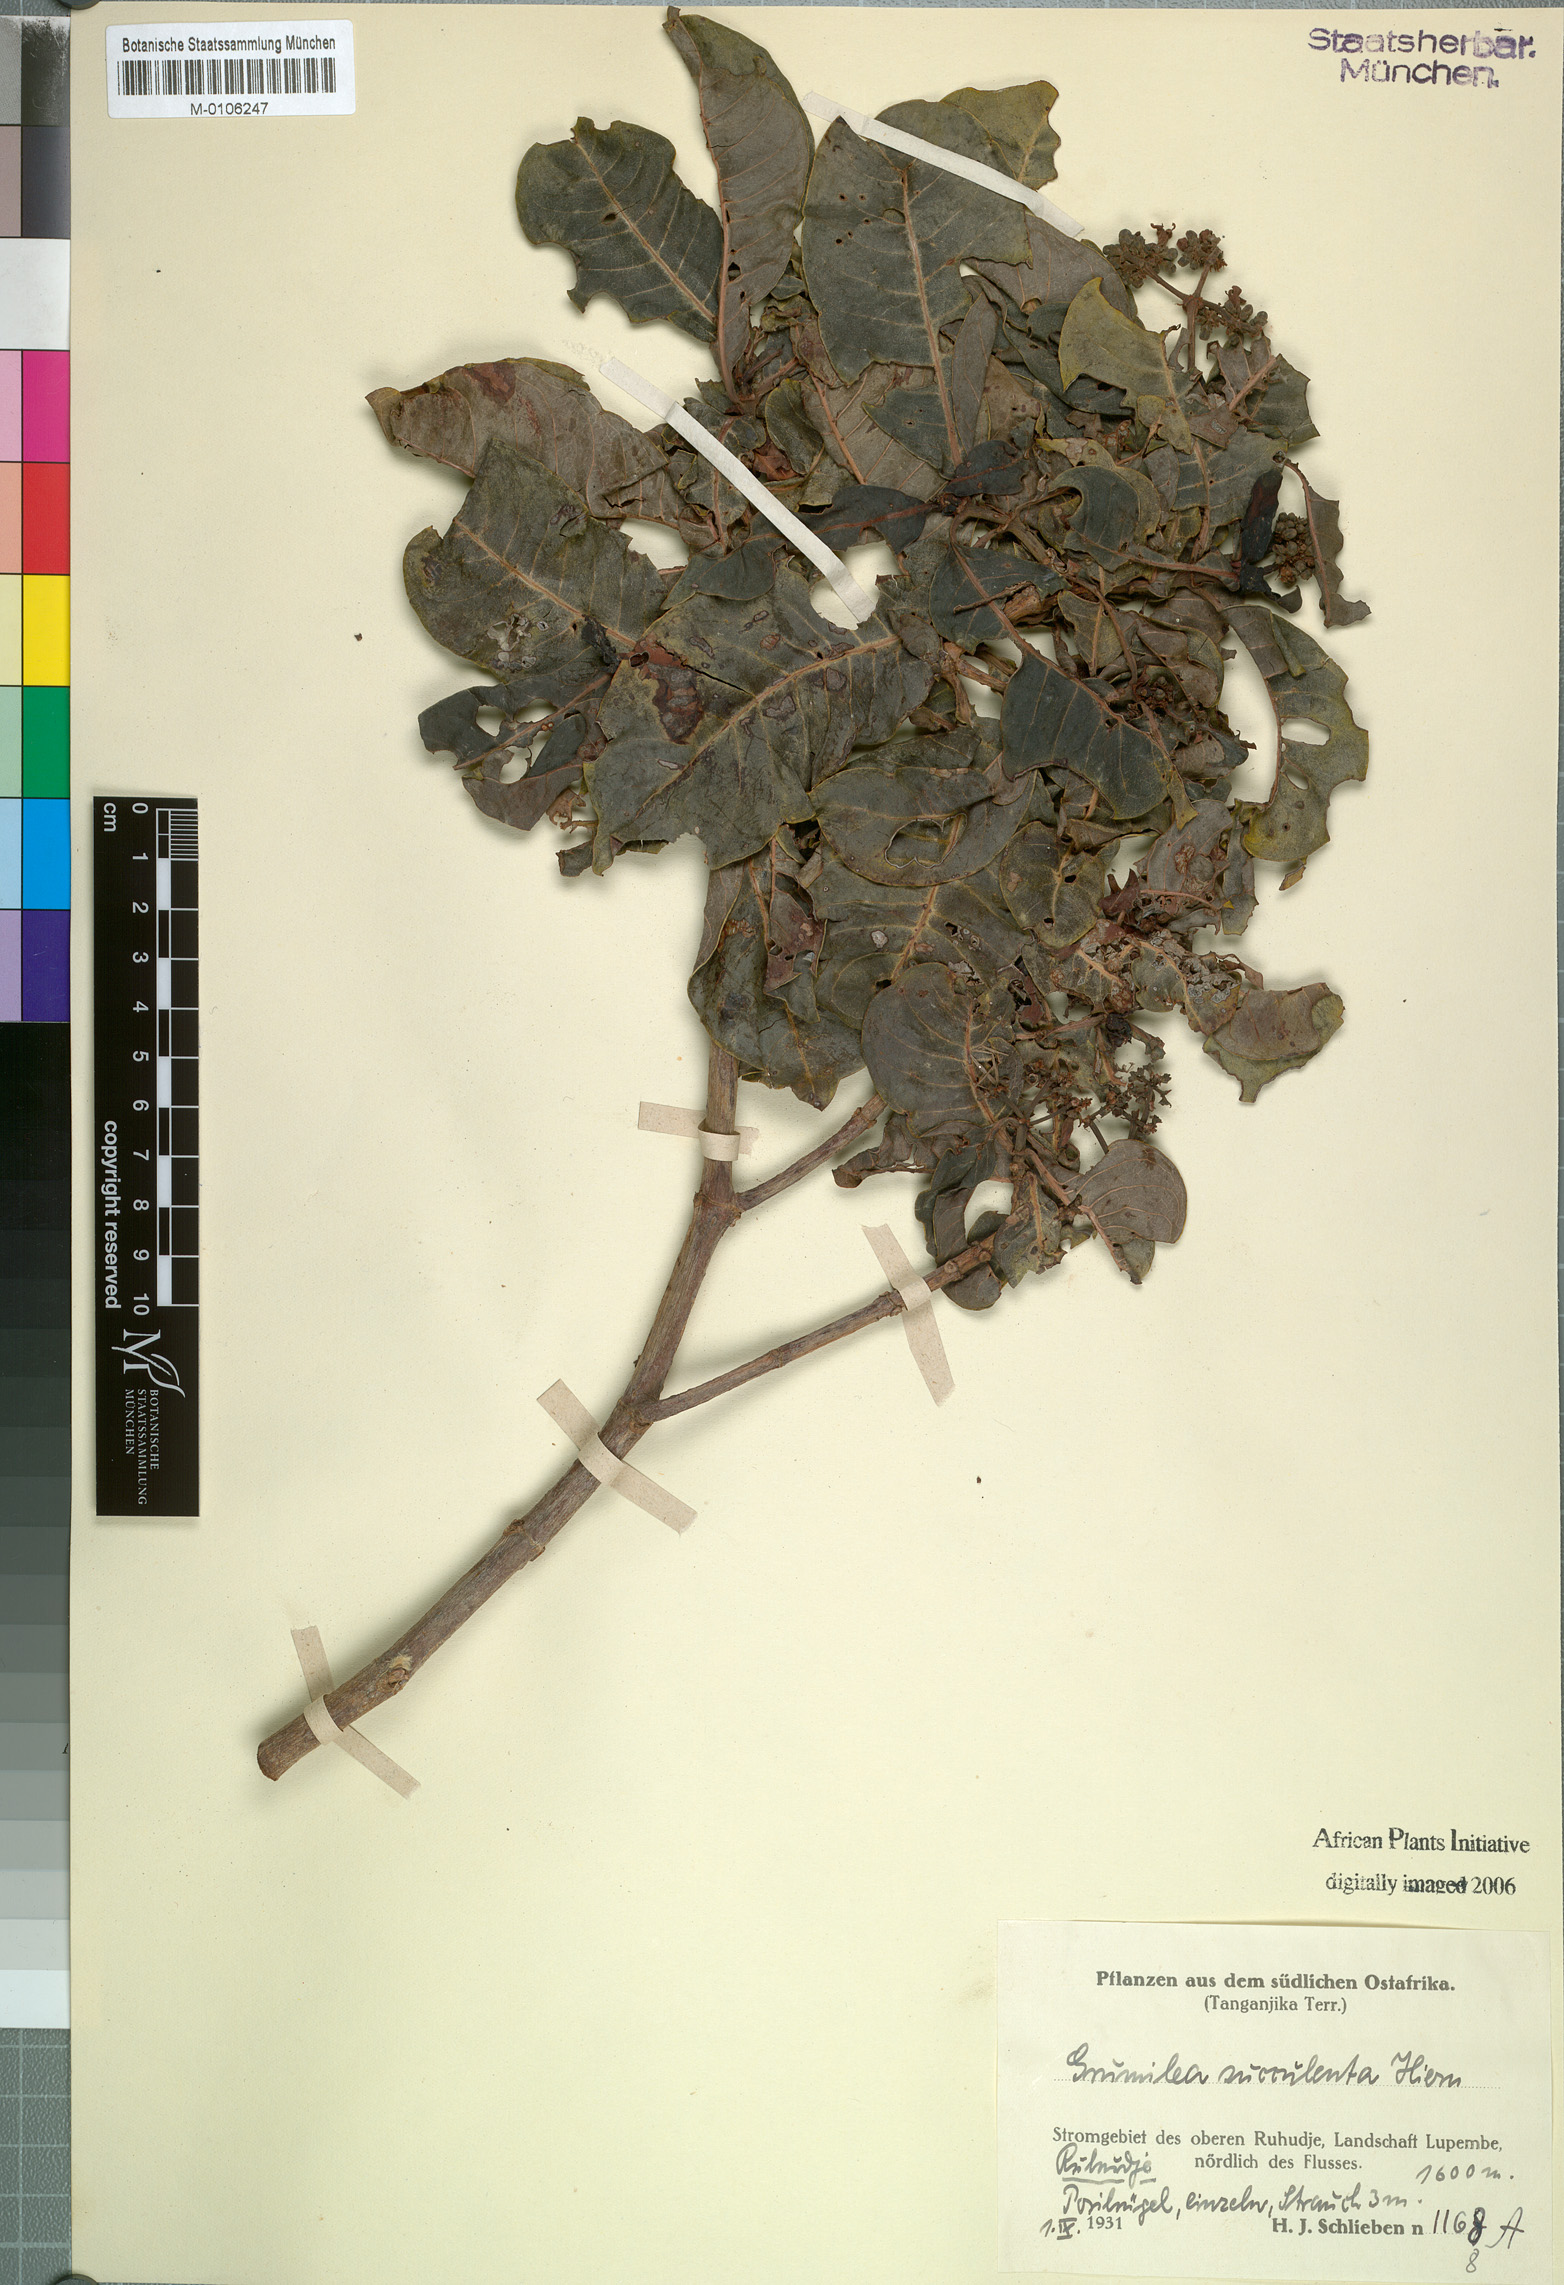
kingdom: Plantae
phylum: Tracheophyta
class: Magnoliopsida
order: Gentianales
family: Rubiaceae
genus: Psychotria
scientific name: Psychotria mahonii
